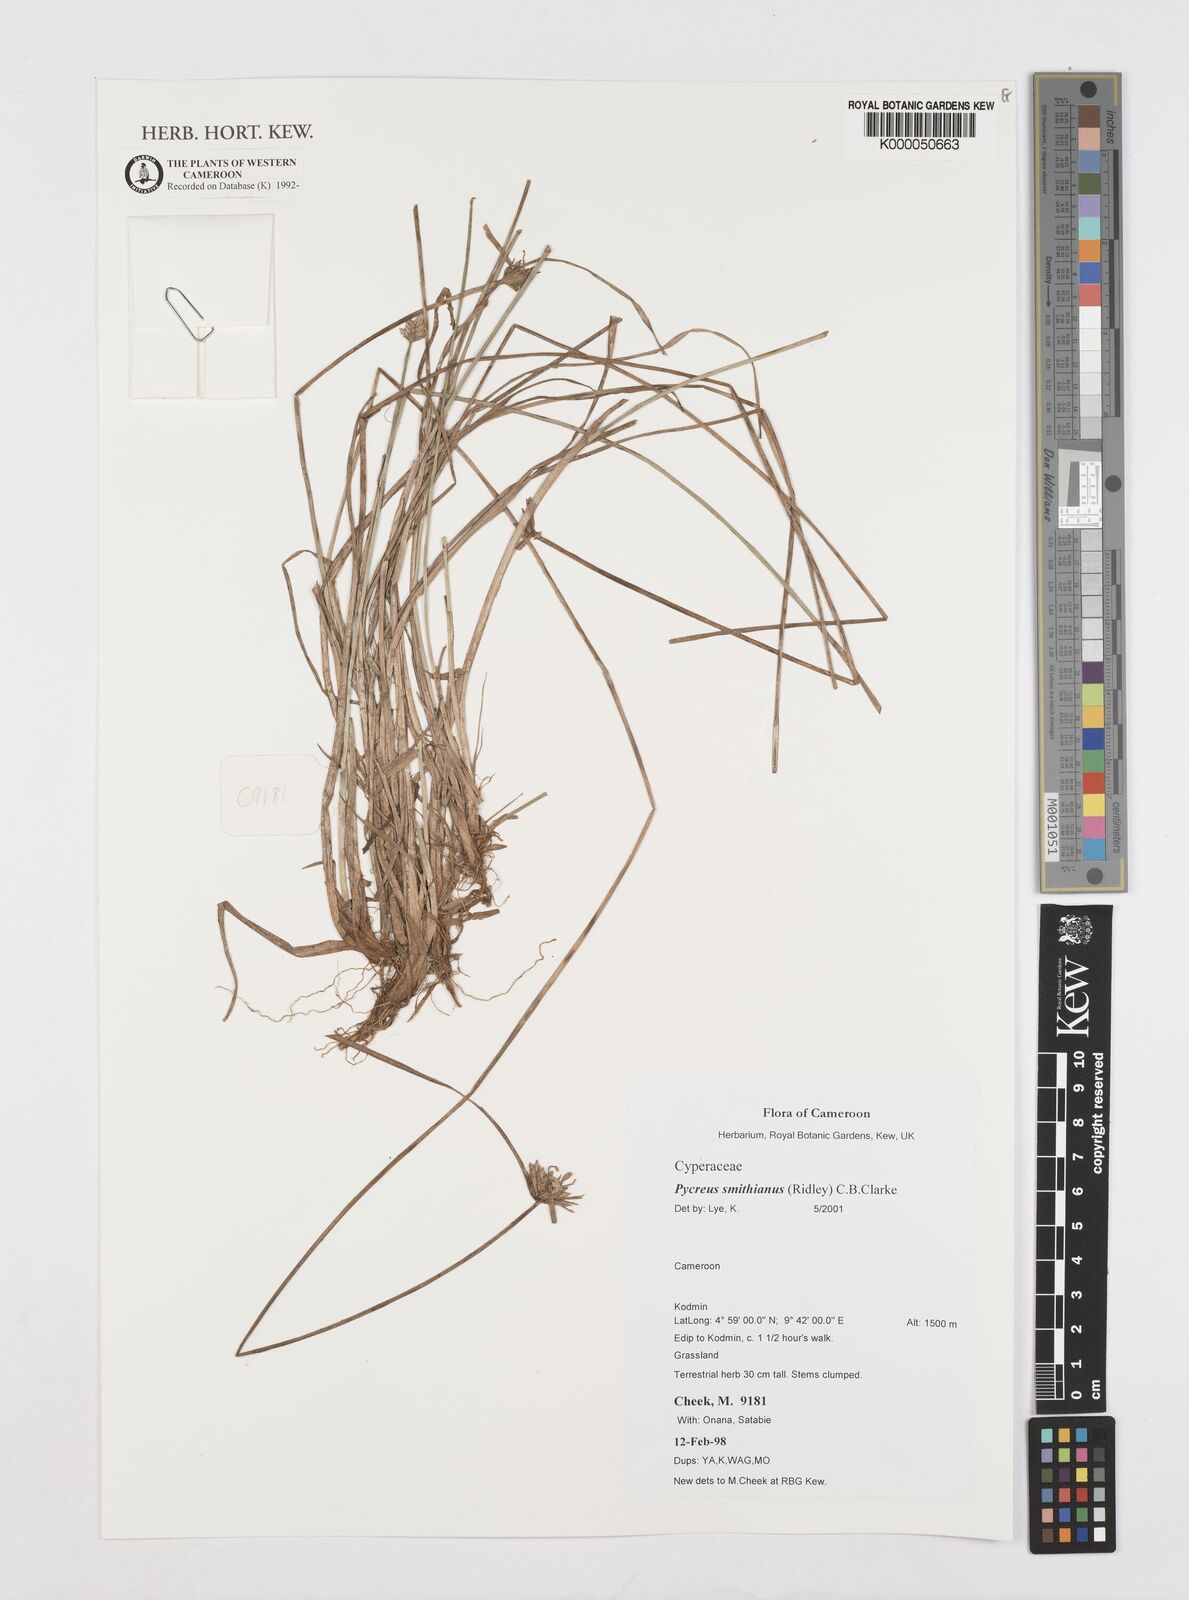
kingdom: Plantae
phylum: Tracheophyta
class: Liliopsida
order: Poales
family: Cyperaceae
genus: Cyperus
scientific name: Cyperus smithianus
